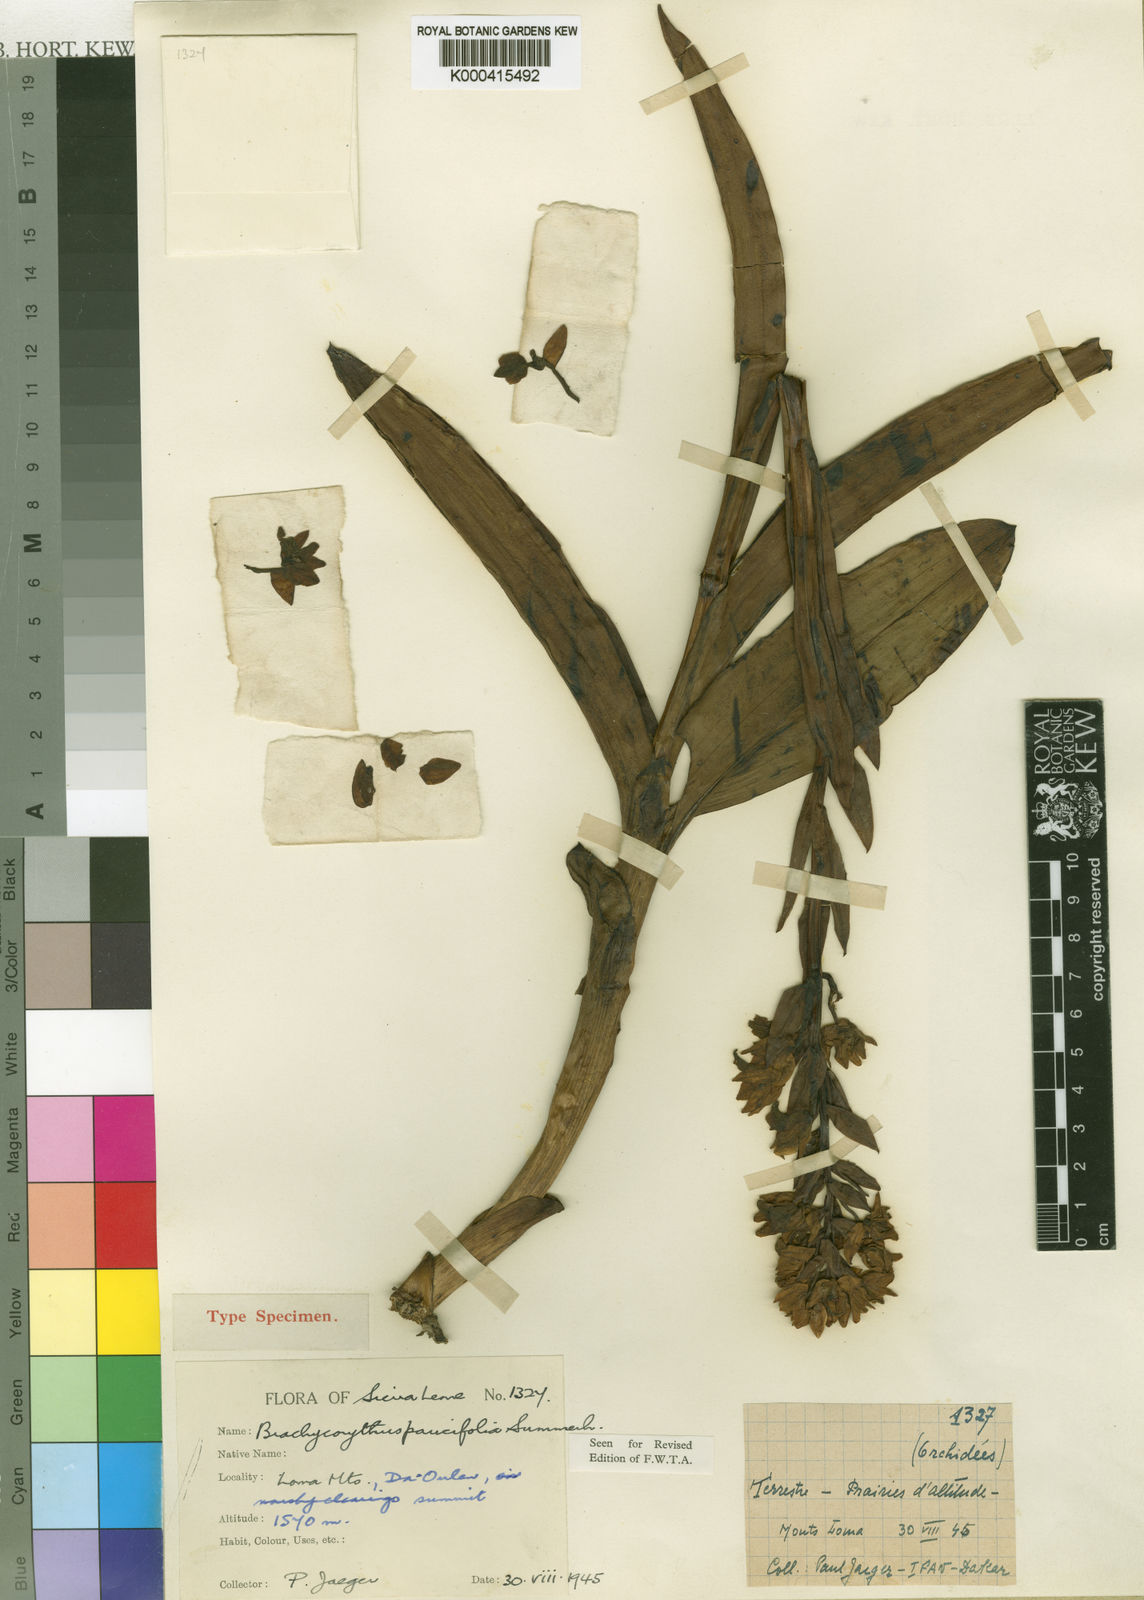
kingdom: Plantae
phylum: Tracheophyta
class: Liliopsida
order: Asparagales
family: Orchidaceae
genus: Brachycorythis
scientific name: Brachycorythis paucifolia
